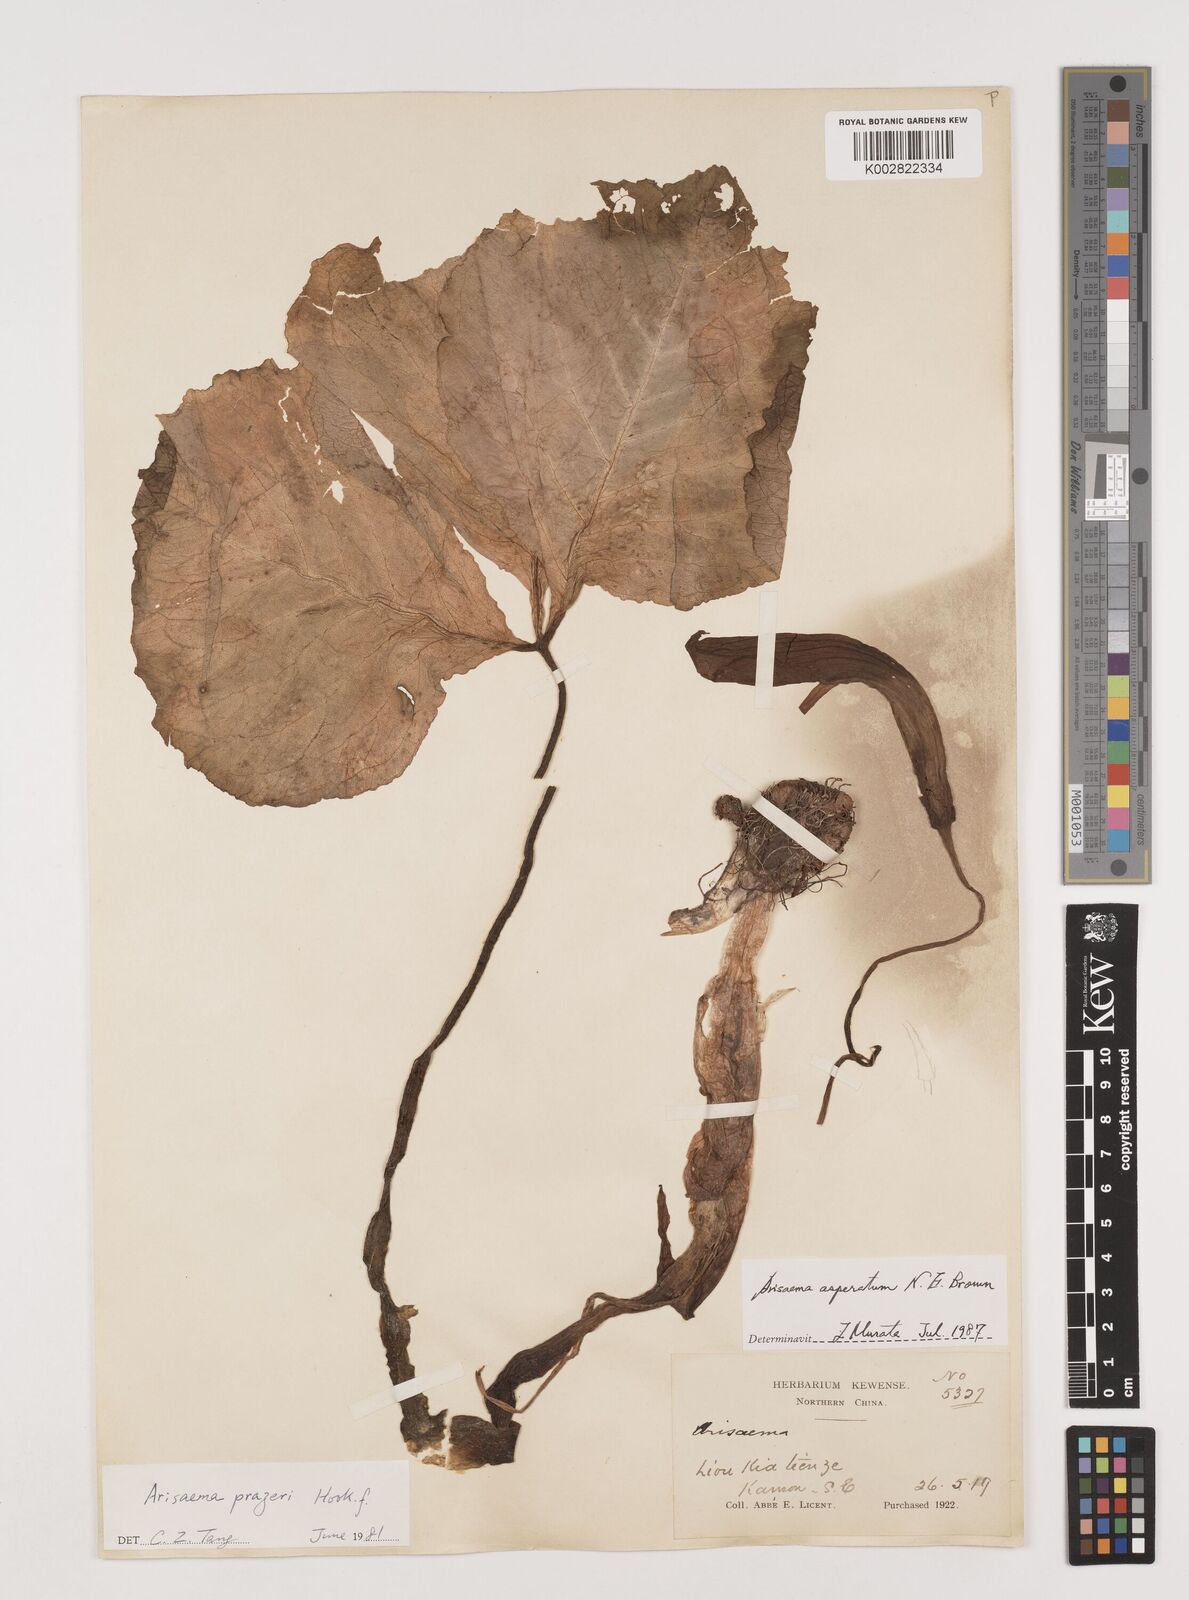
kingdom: Plantae
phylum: Tracheophyta
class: Liliopsida
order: Alismatales
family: Araceae
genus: Arisaema
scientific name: Arisaema asperatum
